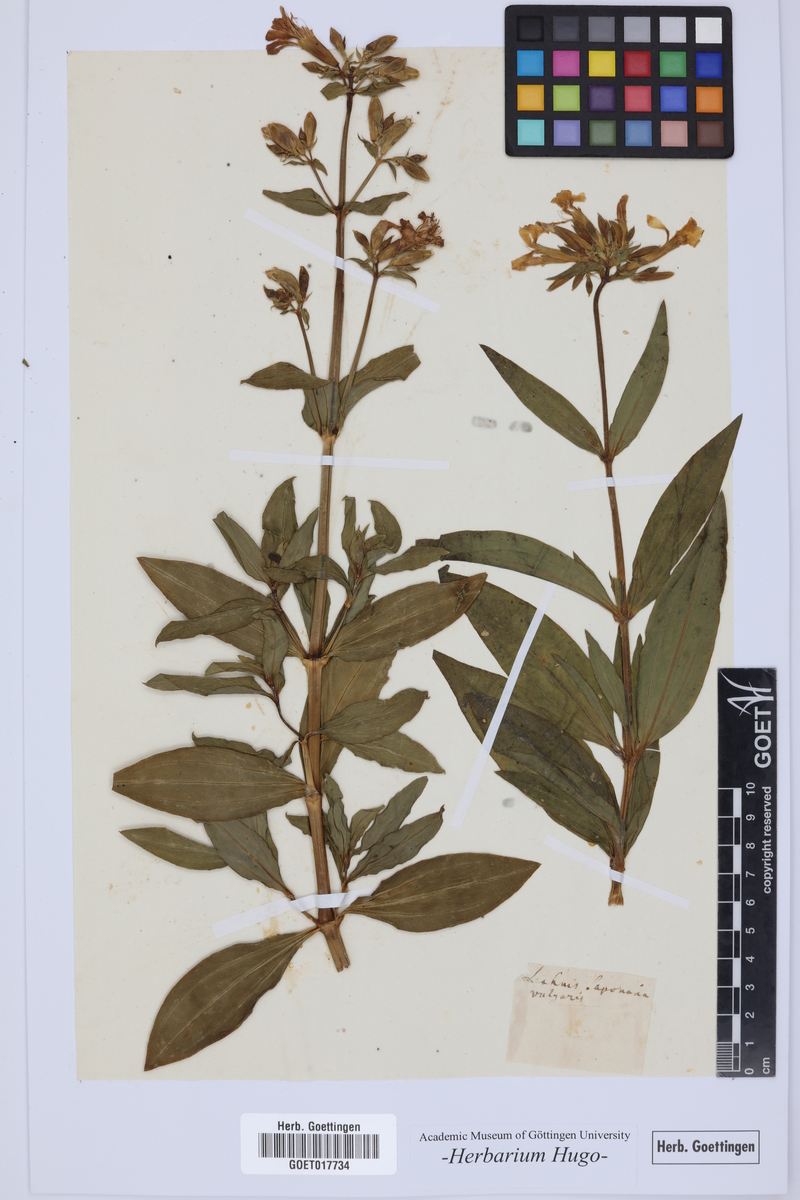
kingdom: Plantae
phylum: Tracheophyta
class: Magnoliopsida
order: Caryophyllales
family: Caryophyllaceae
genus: Saponaria
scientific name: Saponaria officinalis
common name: Soapwort
